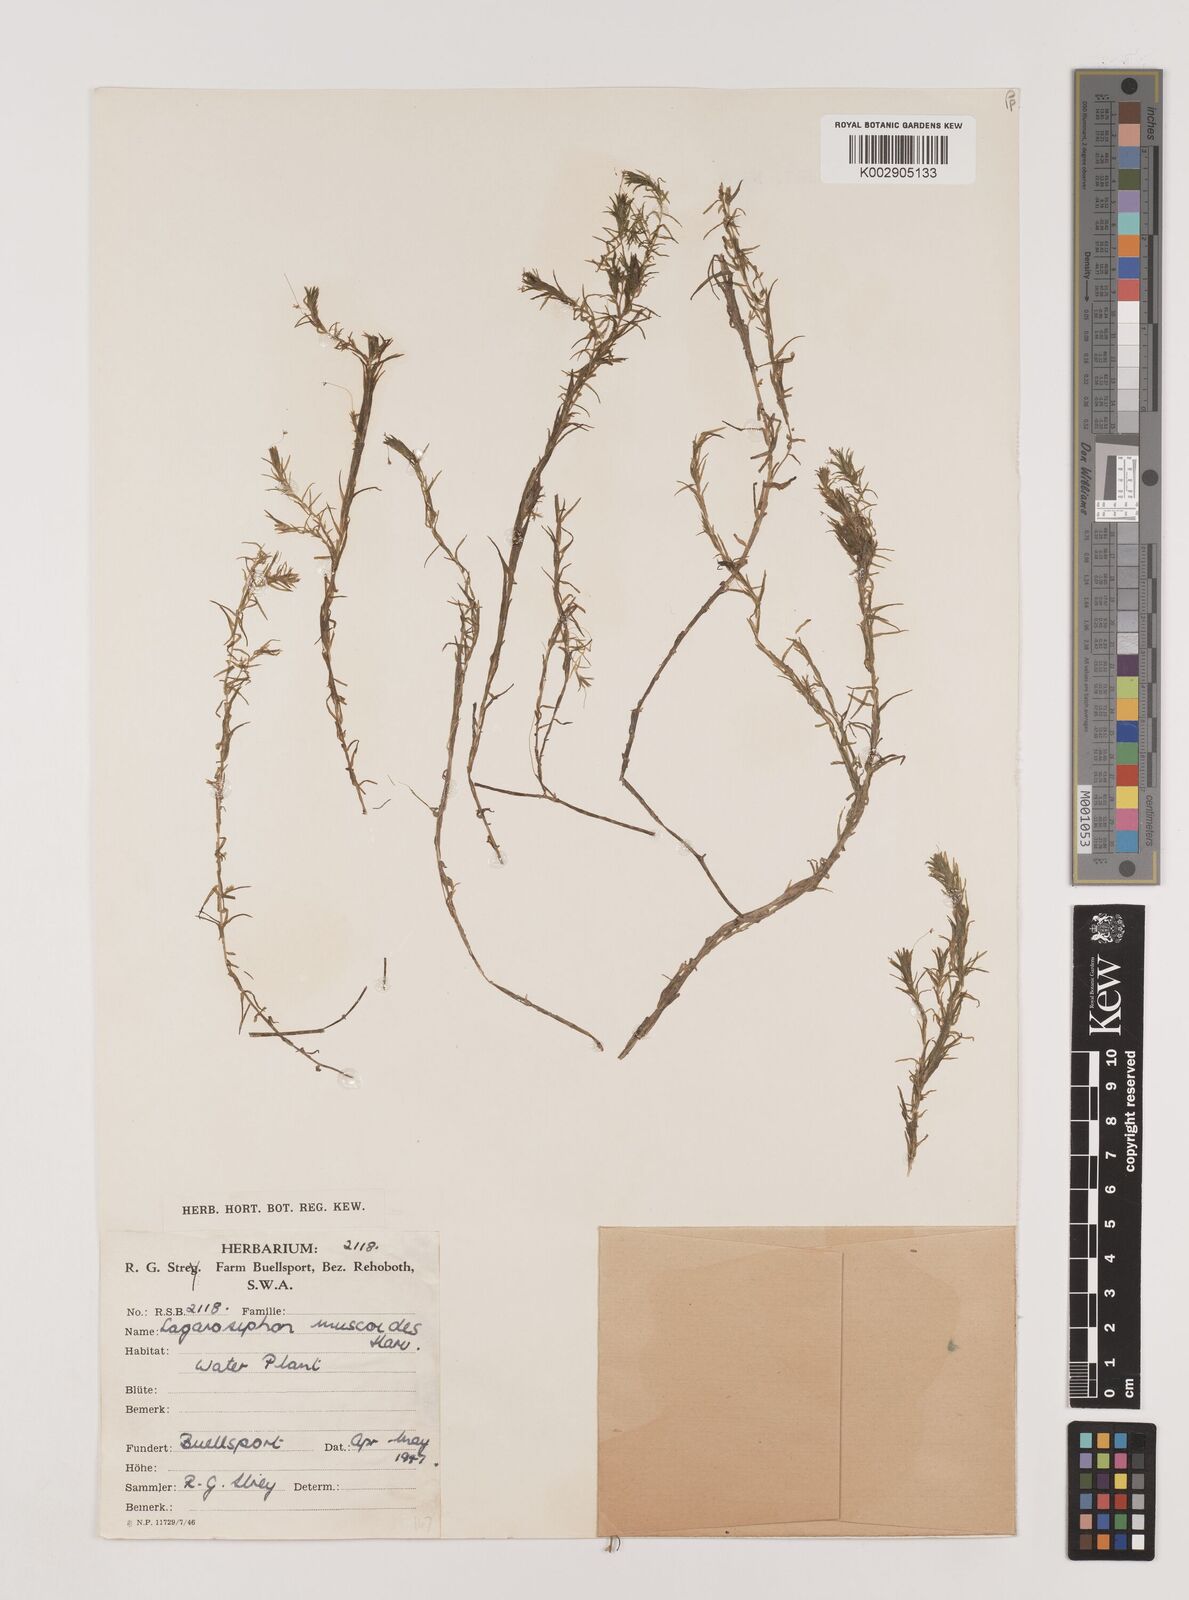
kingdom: Plantae
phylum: Tracheophyta
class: Liliopsida
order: Alismatales
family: Hydrocharitaceae
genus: Lagarosiphon
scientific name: Lagarosiphon muscoides
